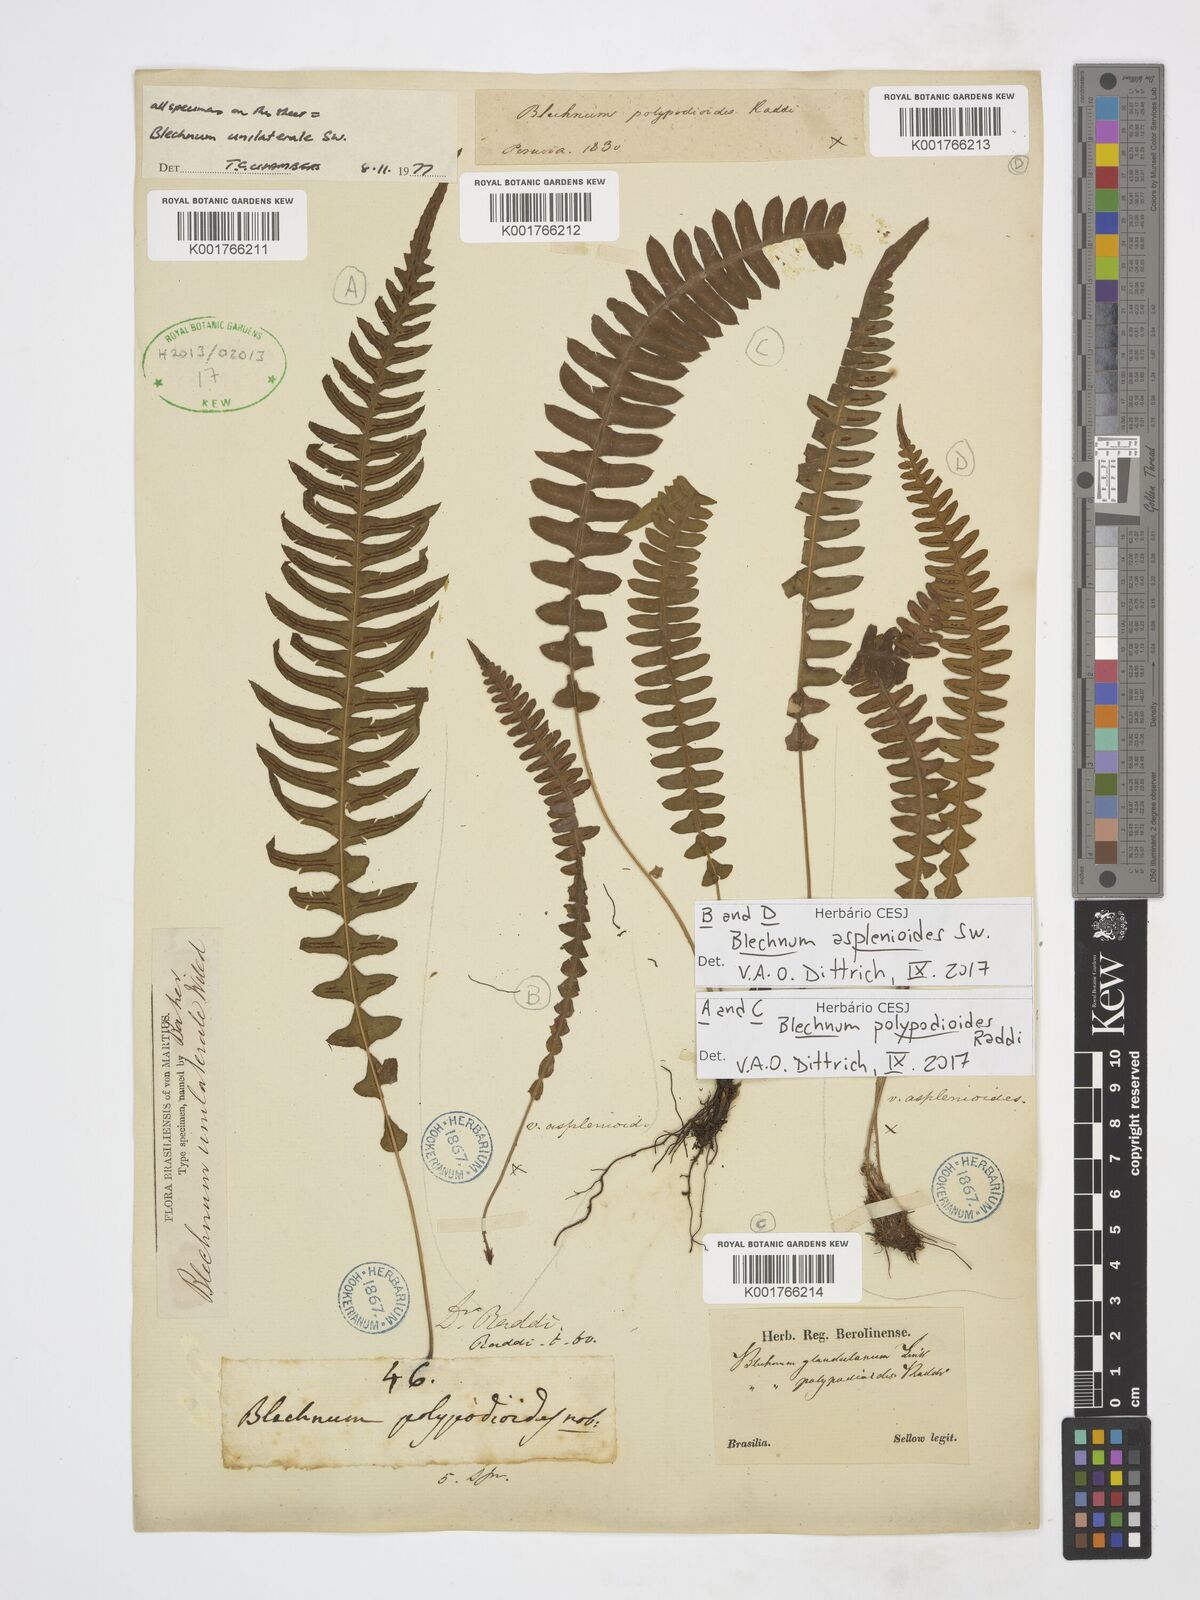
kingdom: Plantae
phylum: Tracheophyta
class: Polypodiopsida
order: Polypodiales
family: Blechnaceae
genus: Blechnum
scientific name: Blechnum asplenioides
